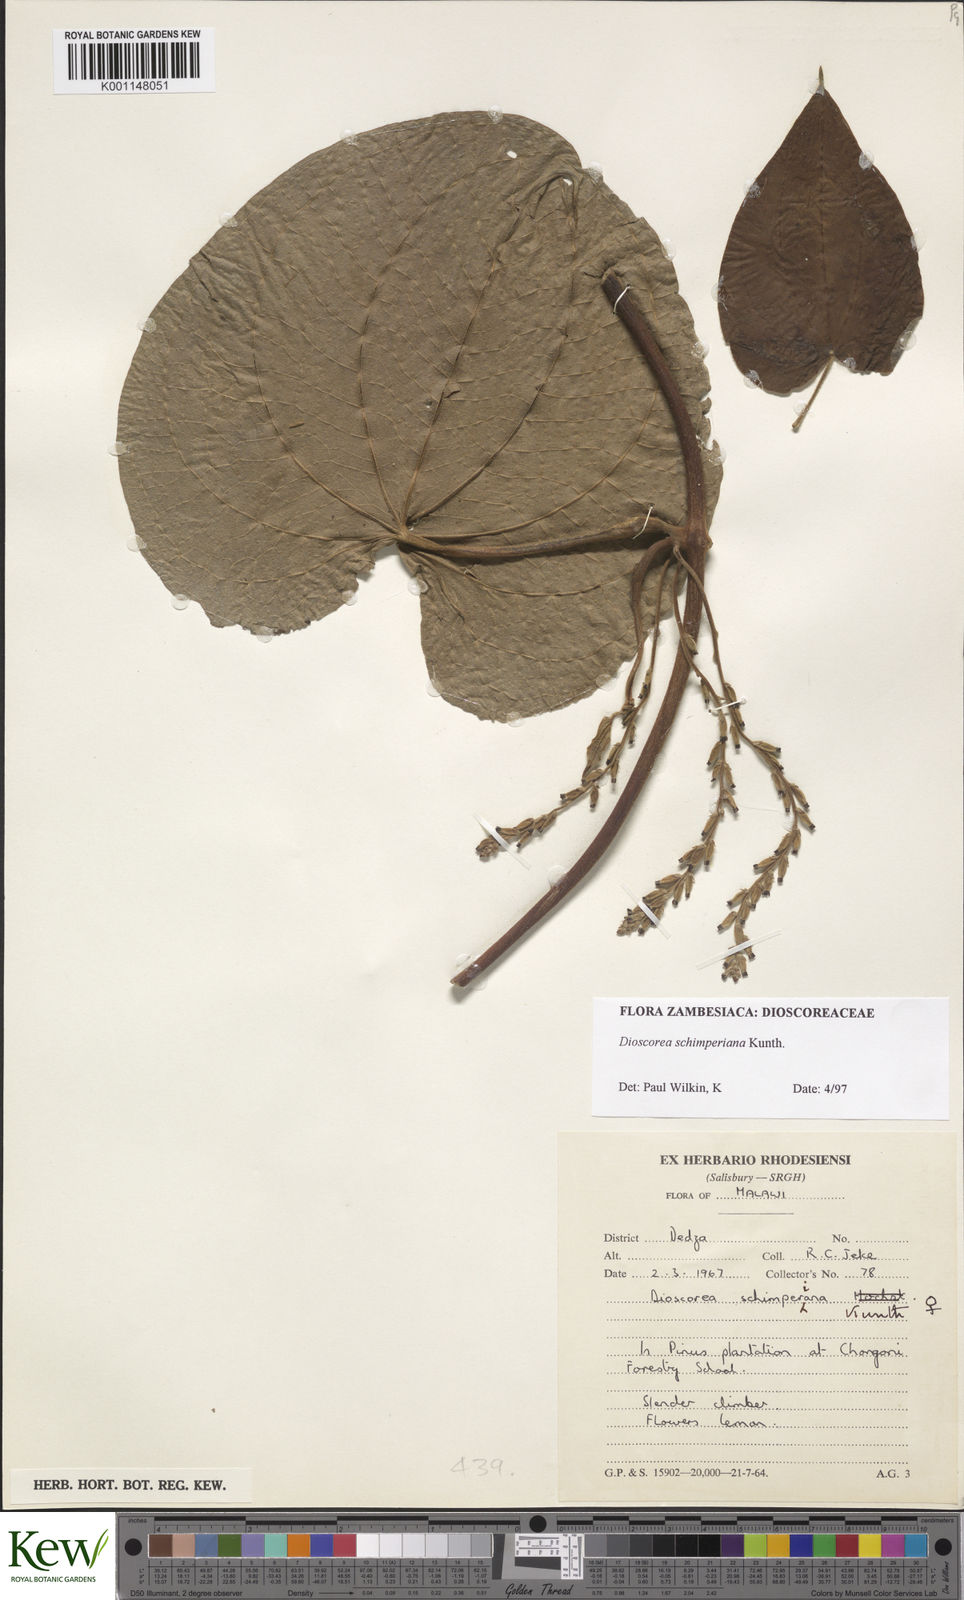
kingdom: Plantae
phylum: Tracheophyta
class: Liliopsida
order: Dioscoreales
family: Dioscoreaceae
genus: Dioscorea
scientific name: Dioscorea schimperiana
